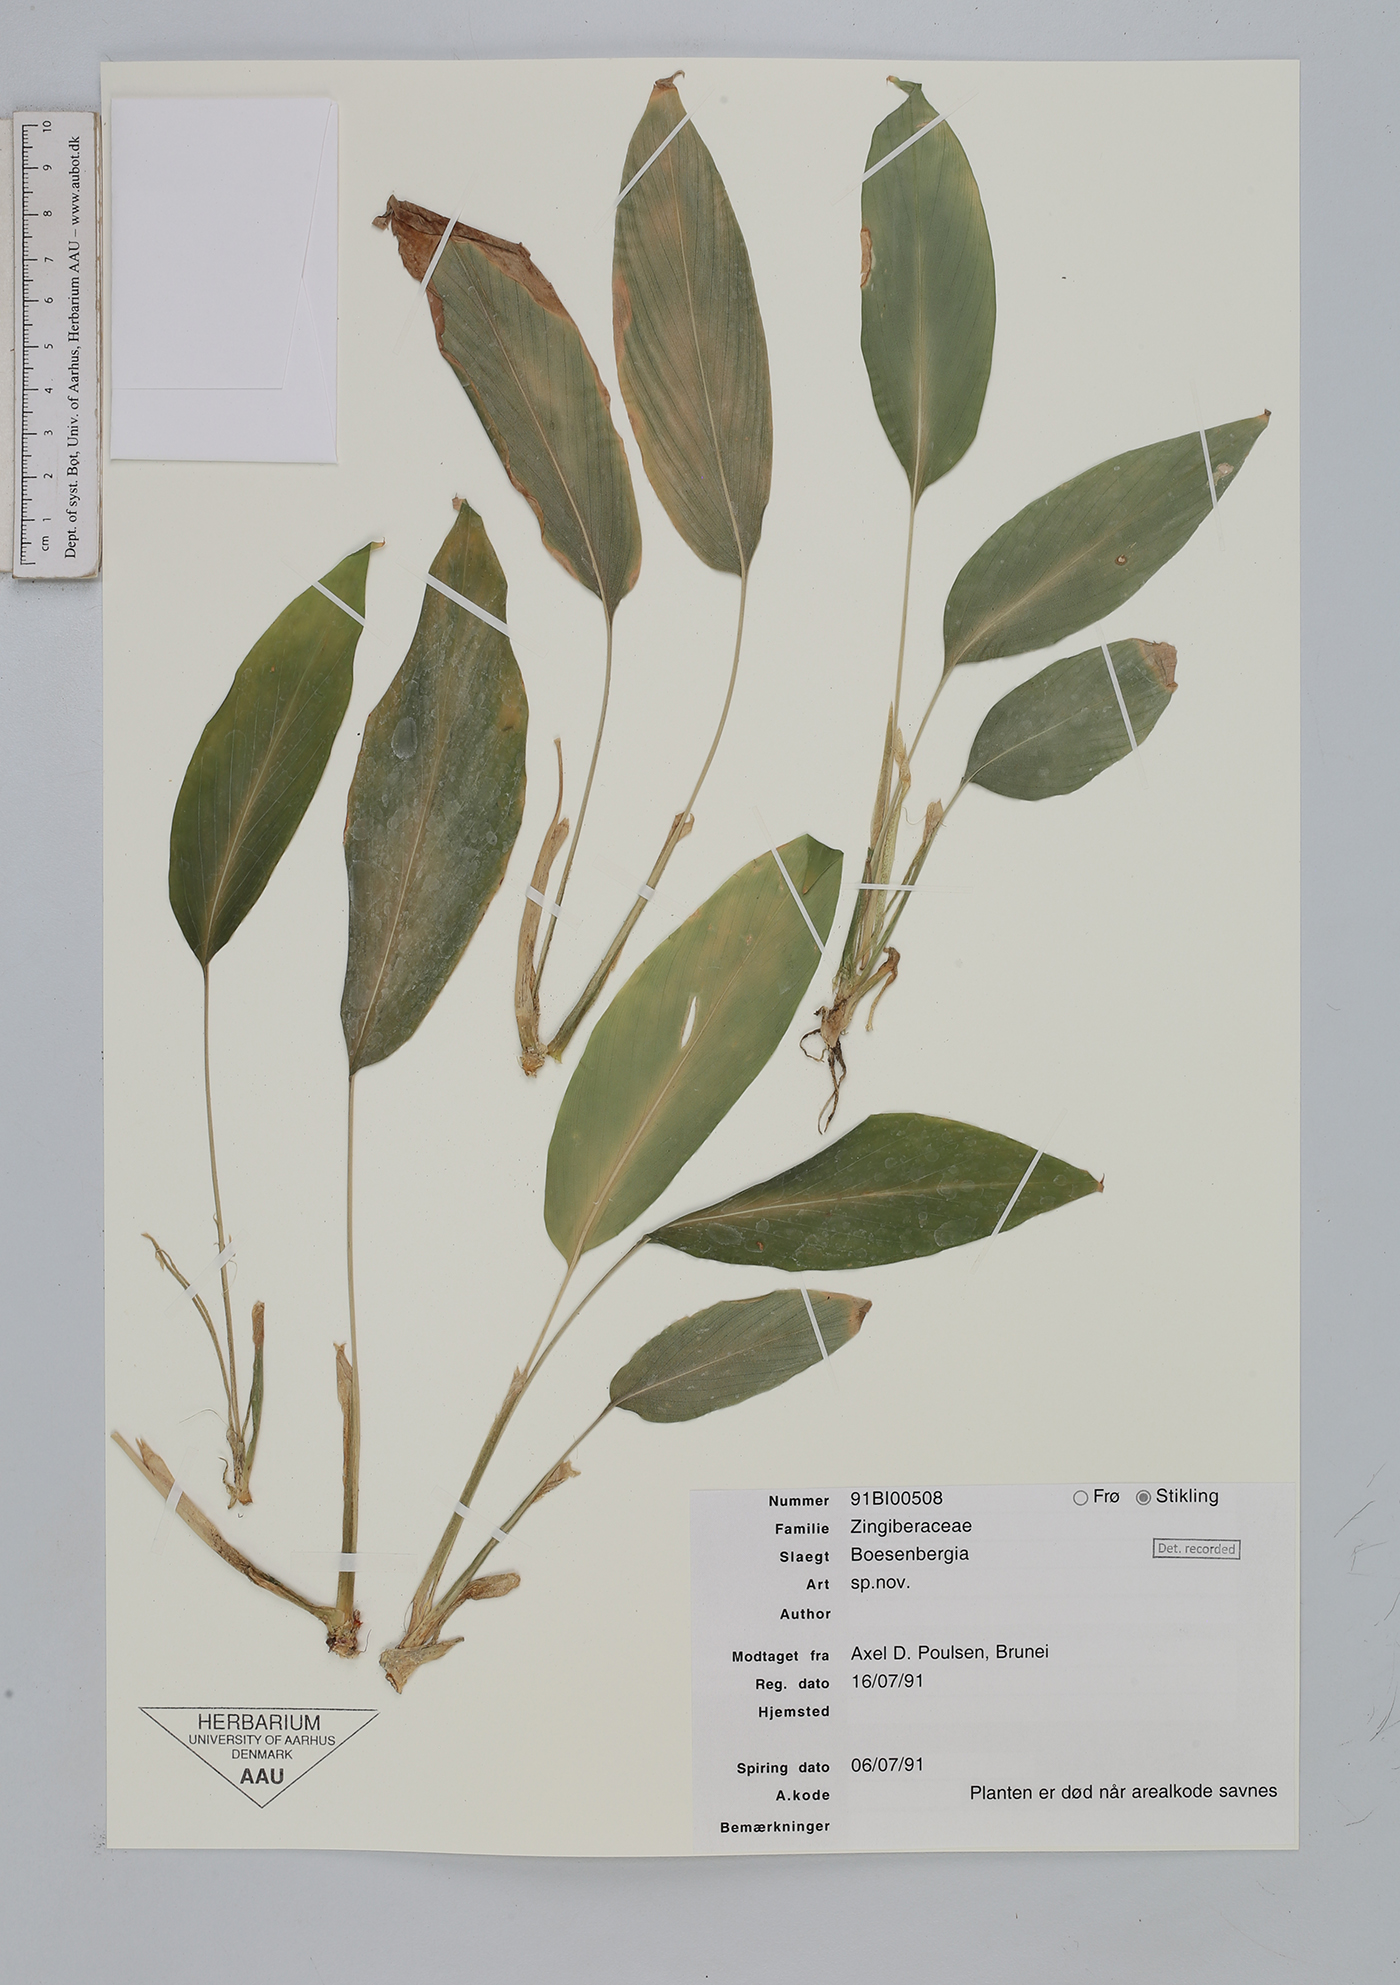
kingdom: Plantae
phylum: Tracheophyta
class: Liliopsida
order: Zingiberales
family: Zingiberaceae
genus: Boesenbergia
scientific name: Boesenbergia
